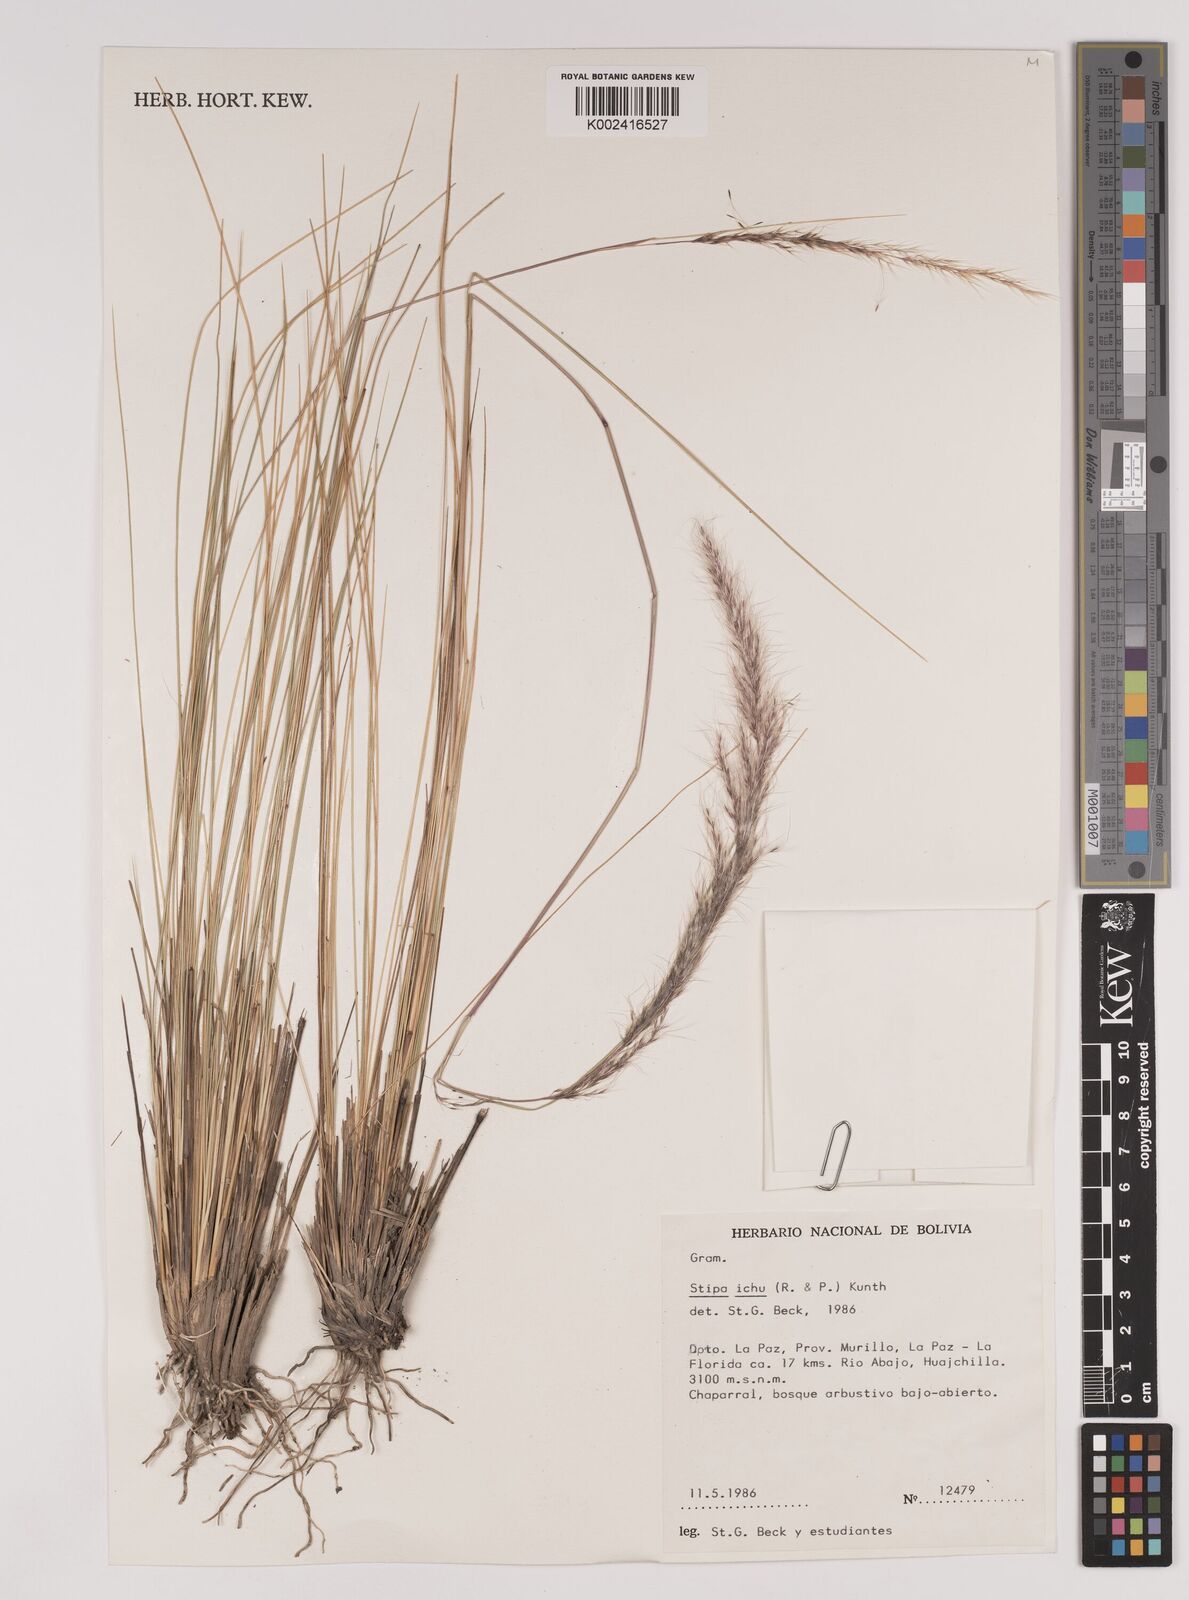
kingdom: Plantae
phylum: Tracheophyta
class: Liliopsida
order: Poales
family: Poaceae
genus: Jarava
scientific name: Jarava ichu
